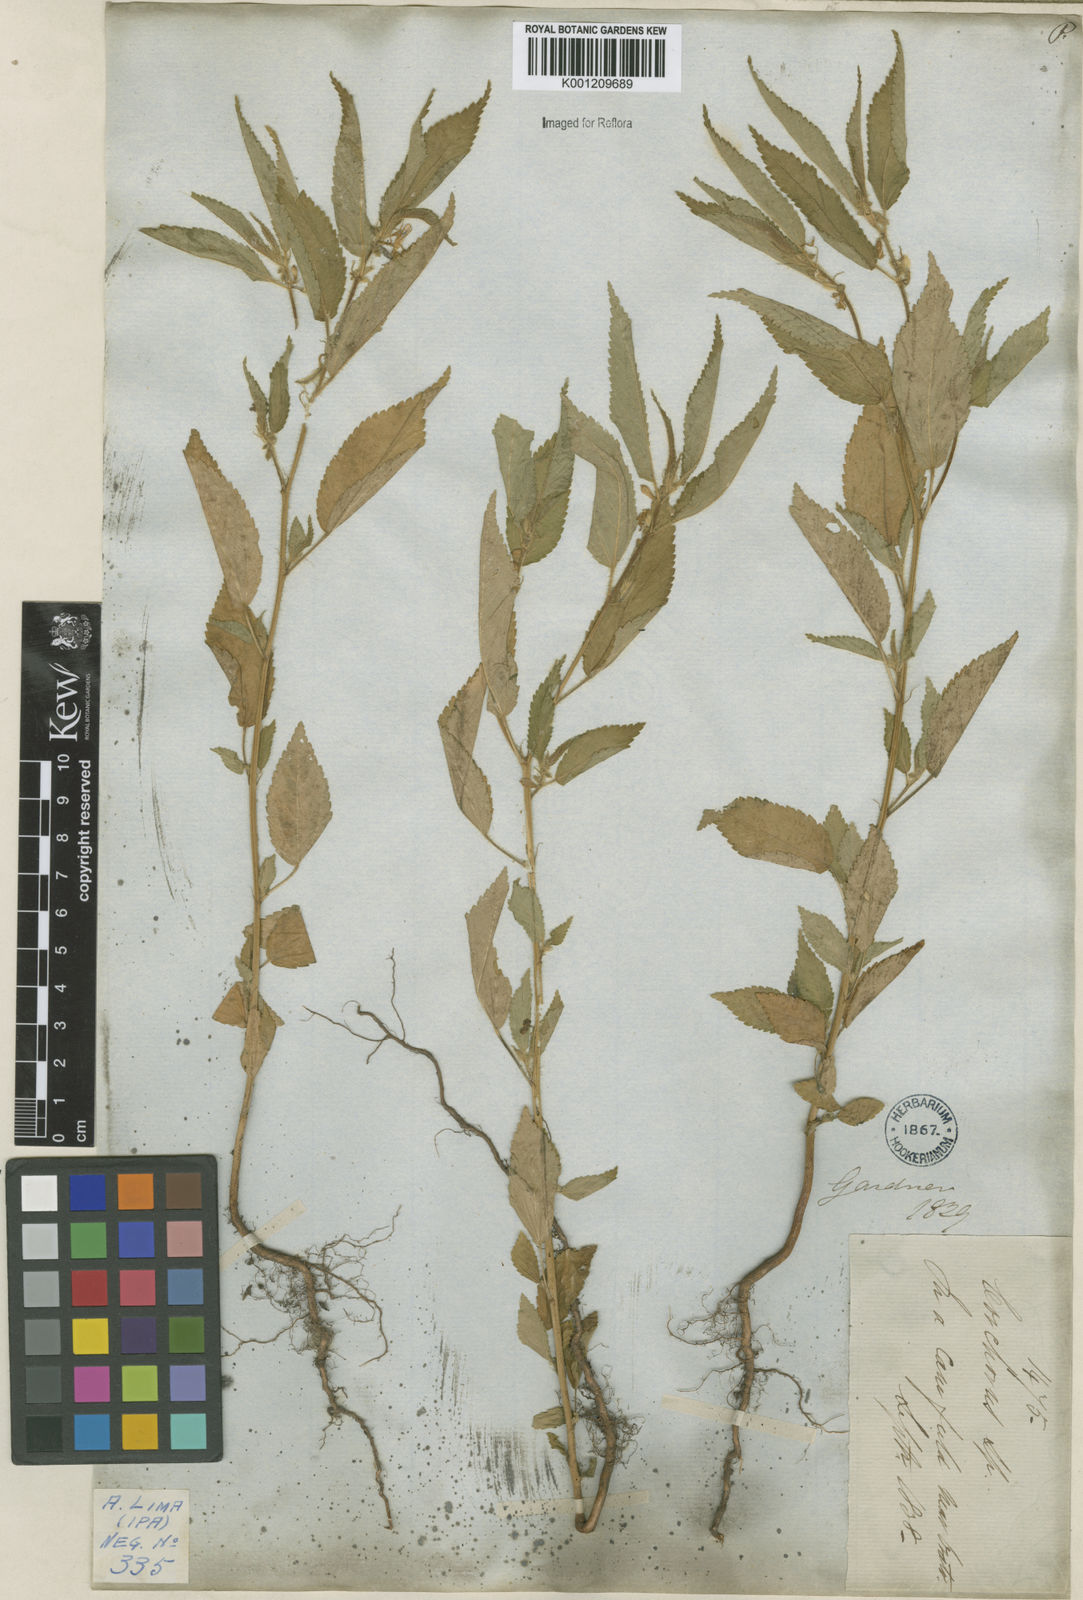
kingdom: Plantae
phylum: Tracheophyta
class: Magnoliopsida
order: Malvales
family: Malvaceae
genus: Corchorus
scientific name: Corchorus hirtus
